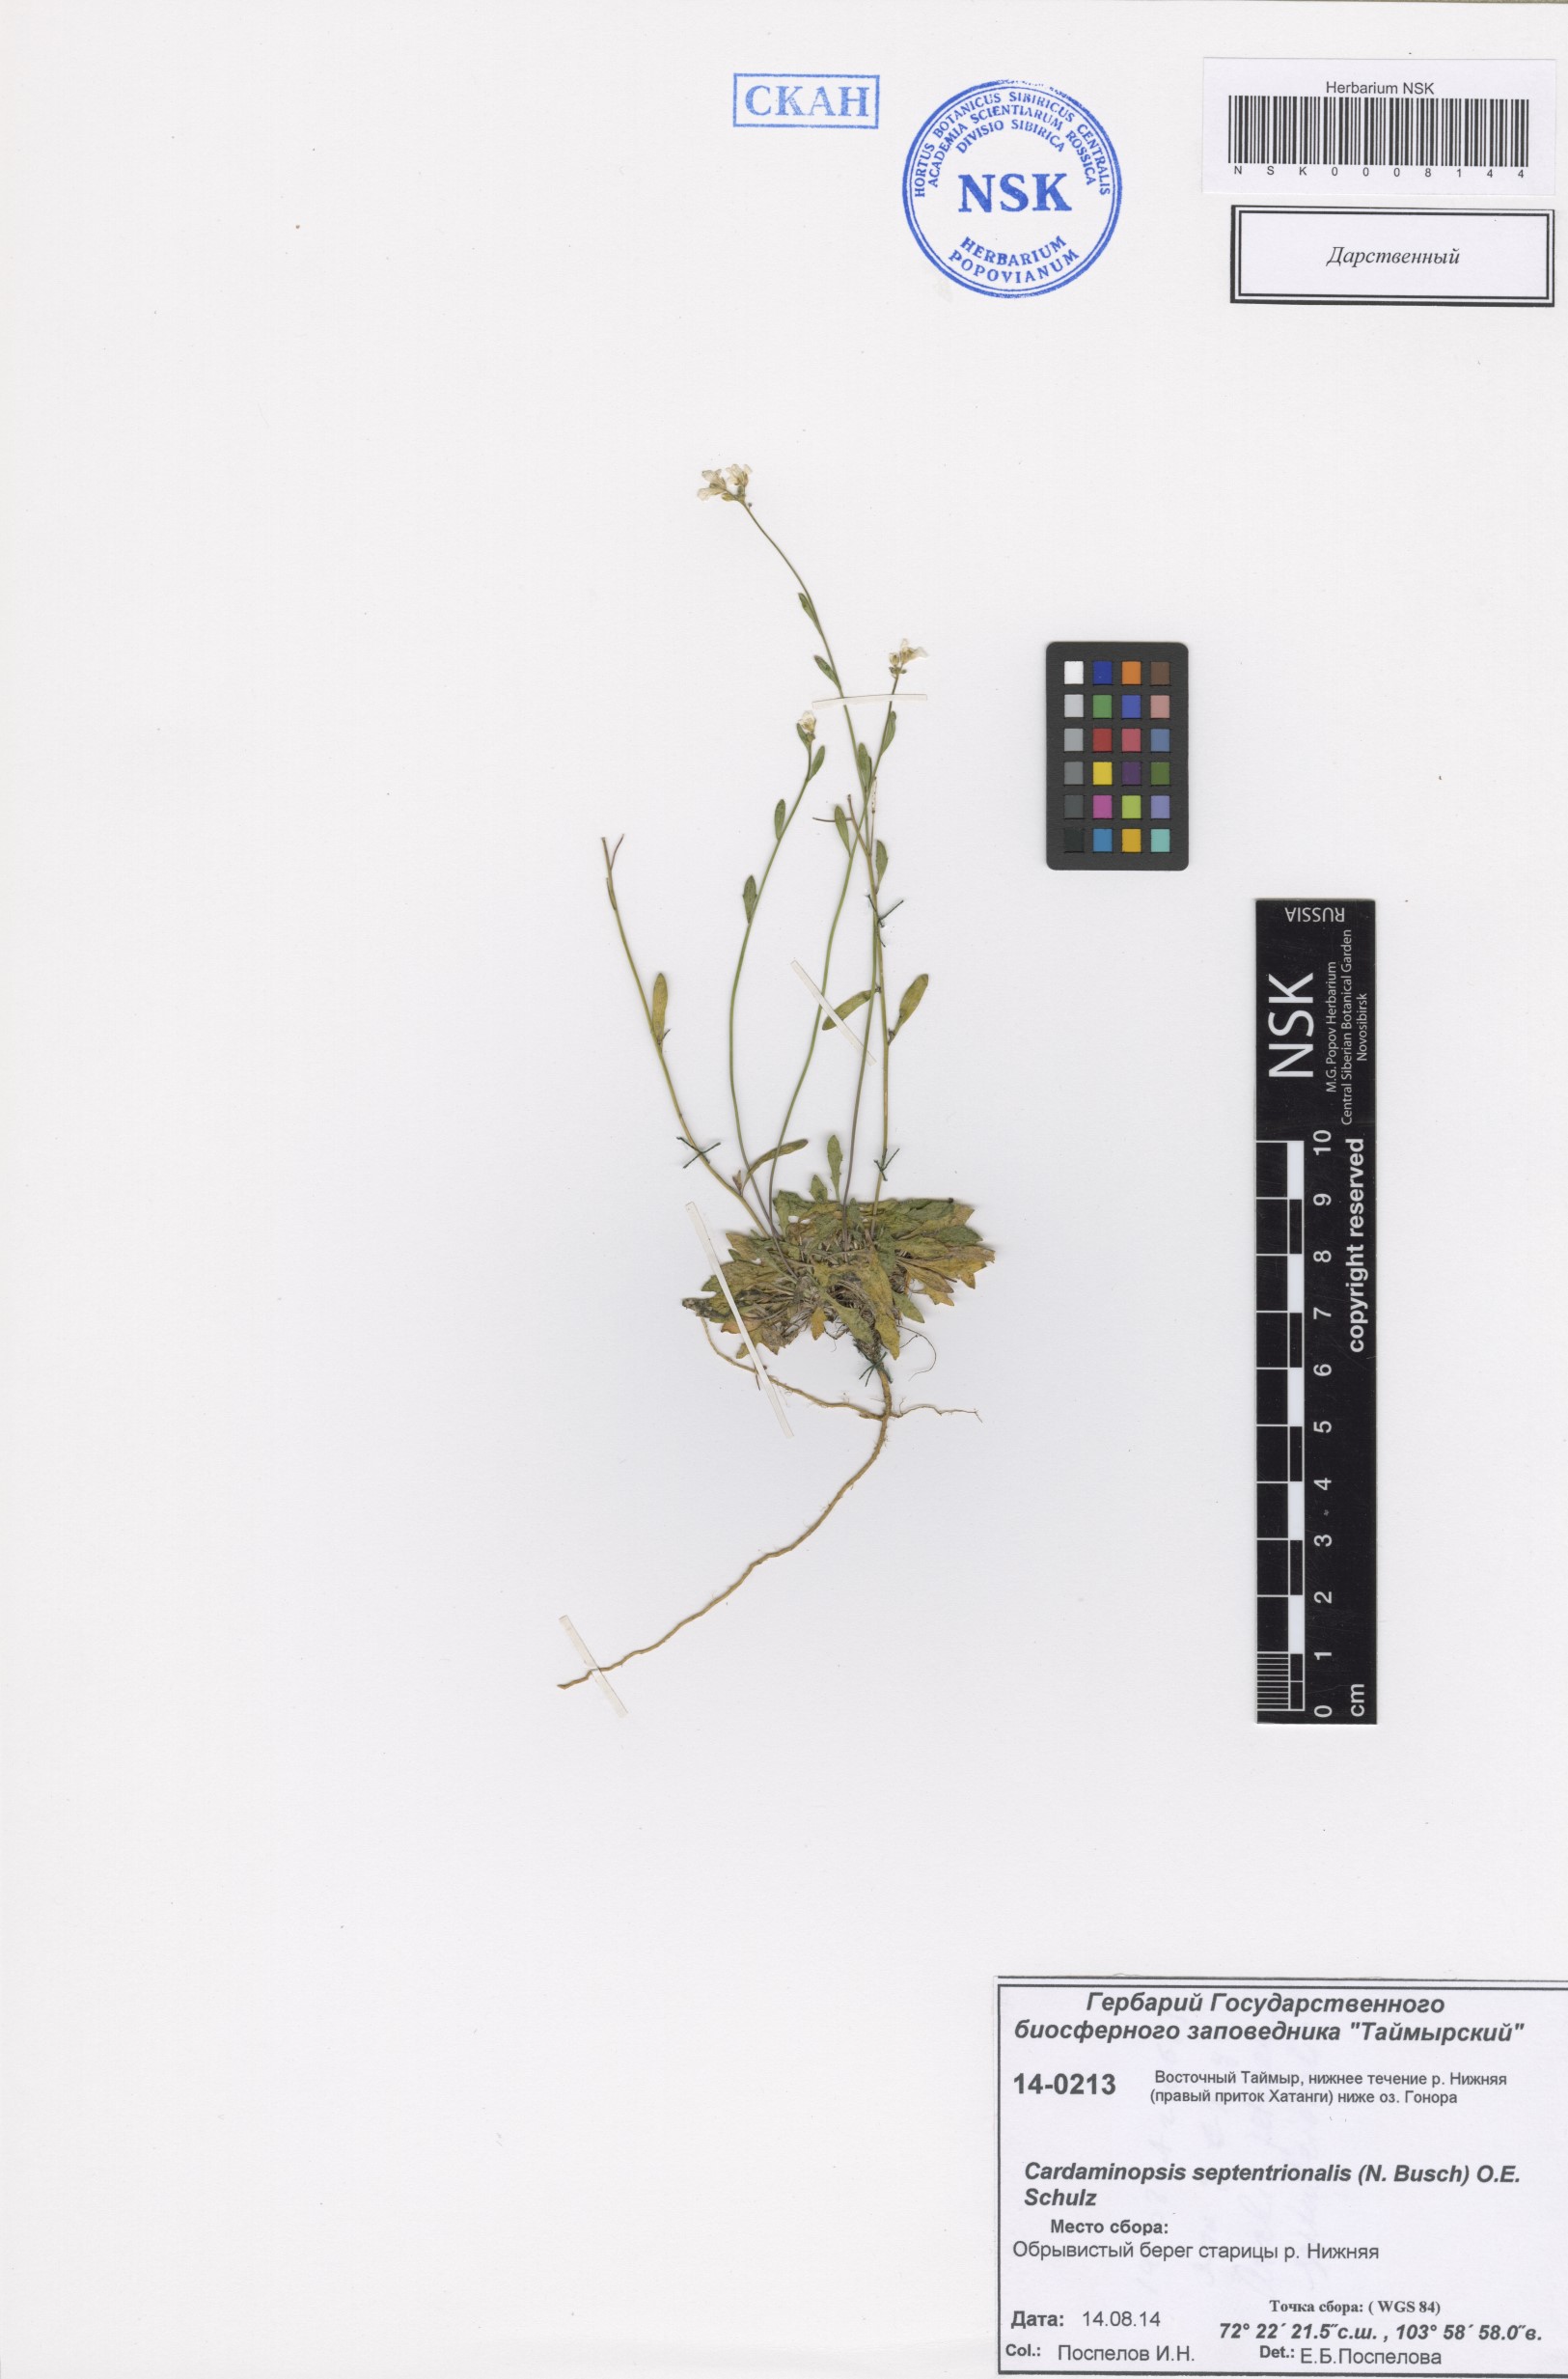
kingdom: Plantae
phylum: Tracheophyta
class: Magnoliopsida
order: Brassicales
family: Brassicaceae
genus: Arabidopsis
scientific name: Arabidopsis lyrata
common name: Lyrate rockcress
